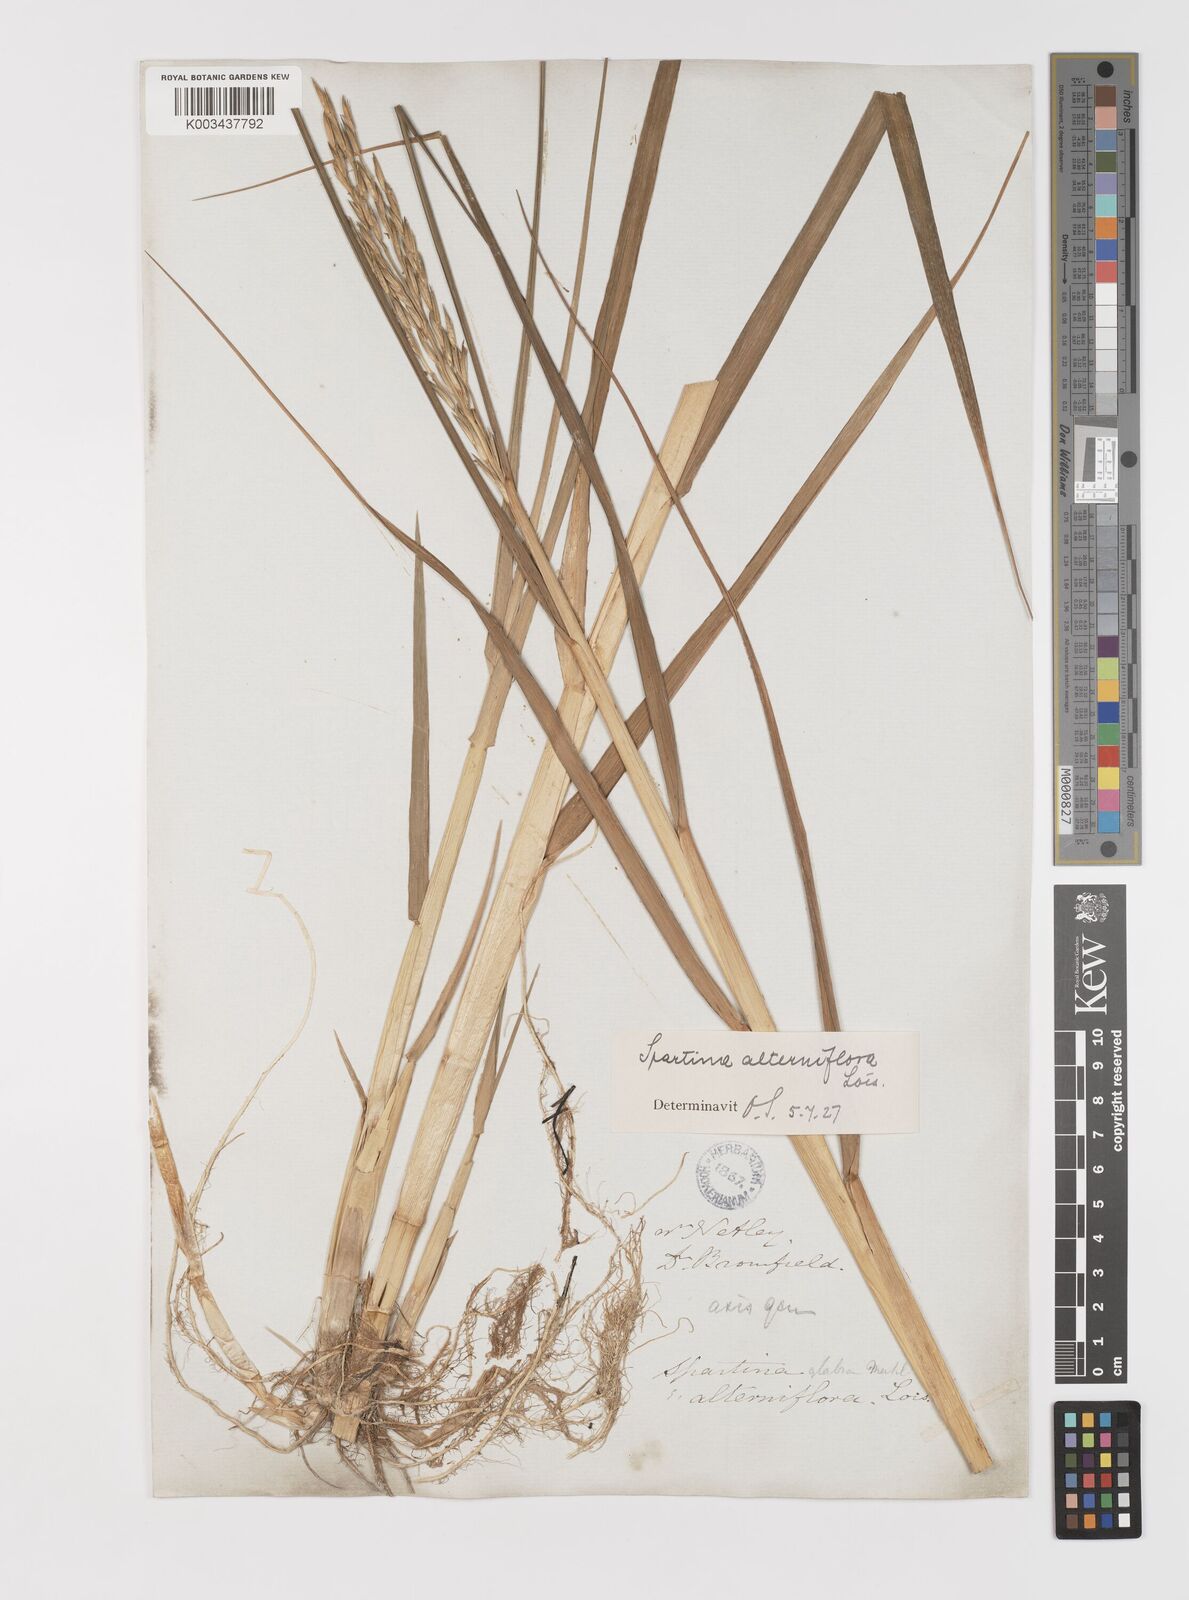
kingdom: Plantae
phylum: Tracheophyta
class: Liliopsida
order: Poales
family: Poaceae
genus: Sporobolus
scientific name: Sporobolus alterniflorus
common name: Atlantic cordgrass
